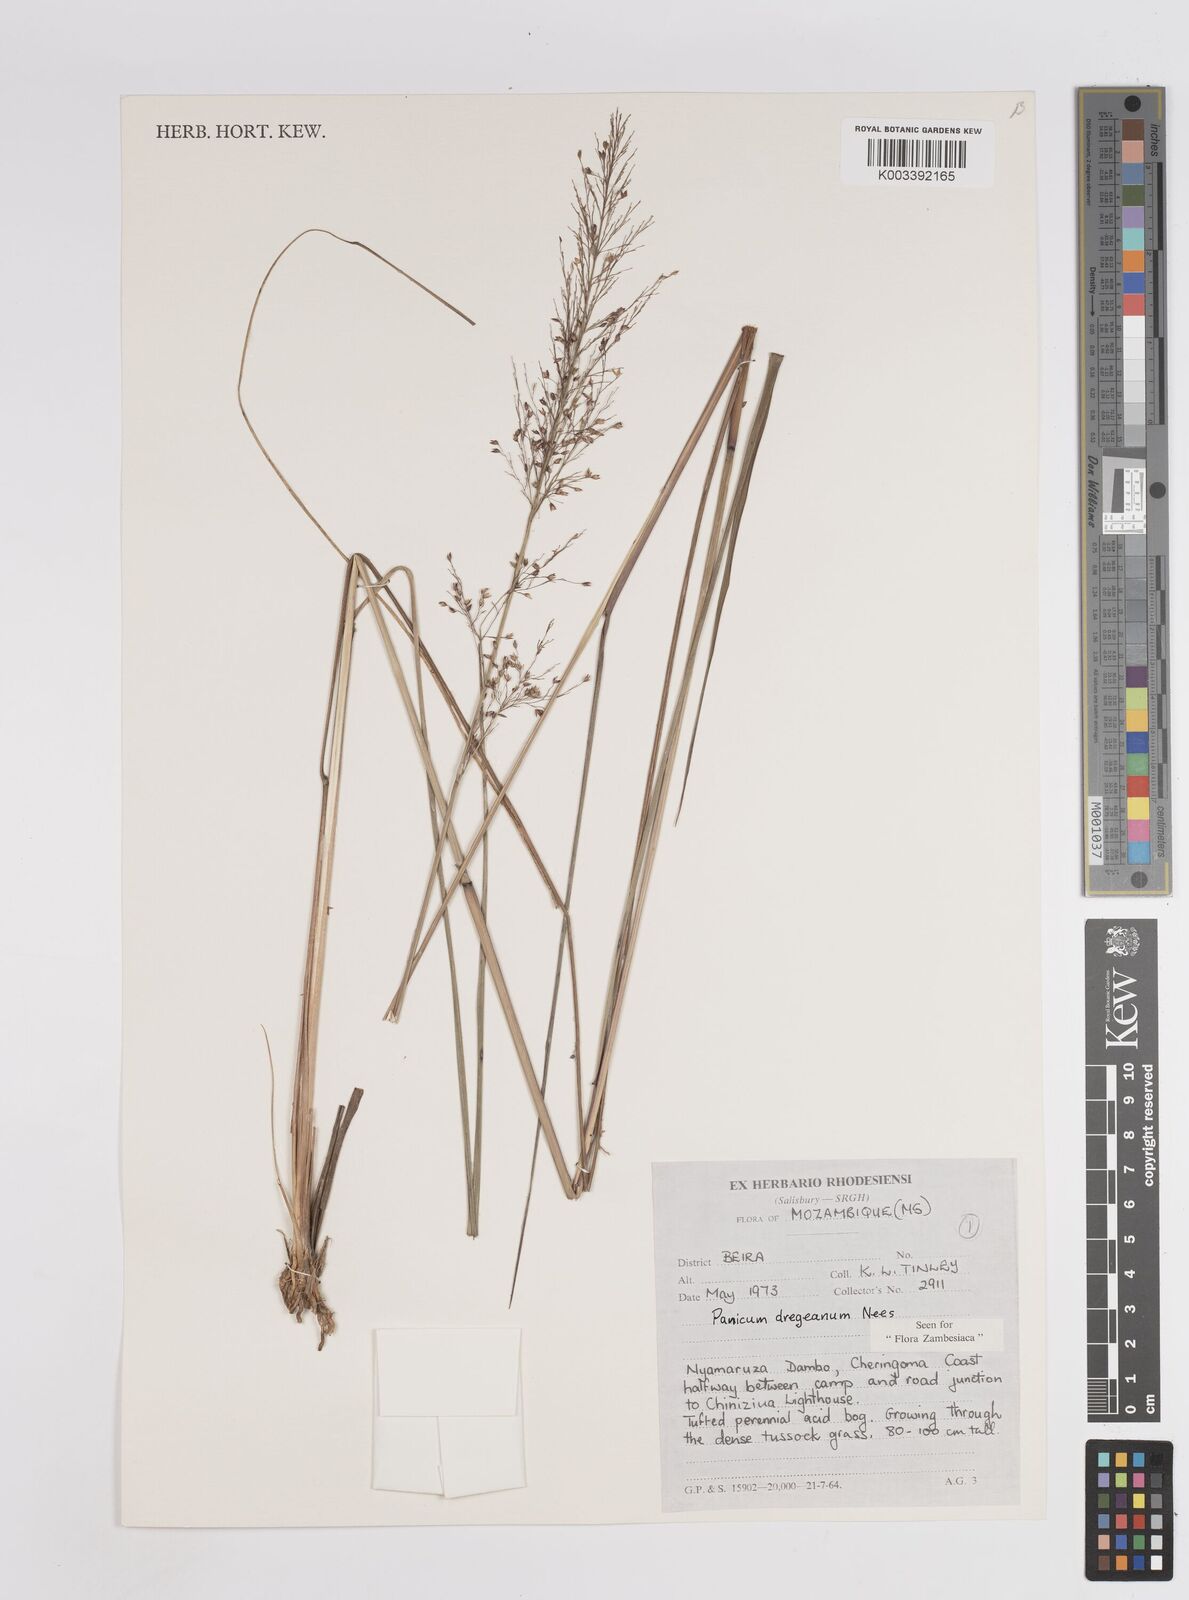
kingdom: Plantae
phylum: Tracheophyta
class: Liliopsida
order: Poales
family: Poaceae
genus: Panicum
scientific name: Panicum dregeanum
